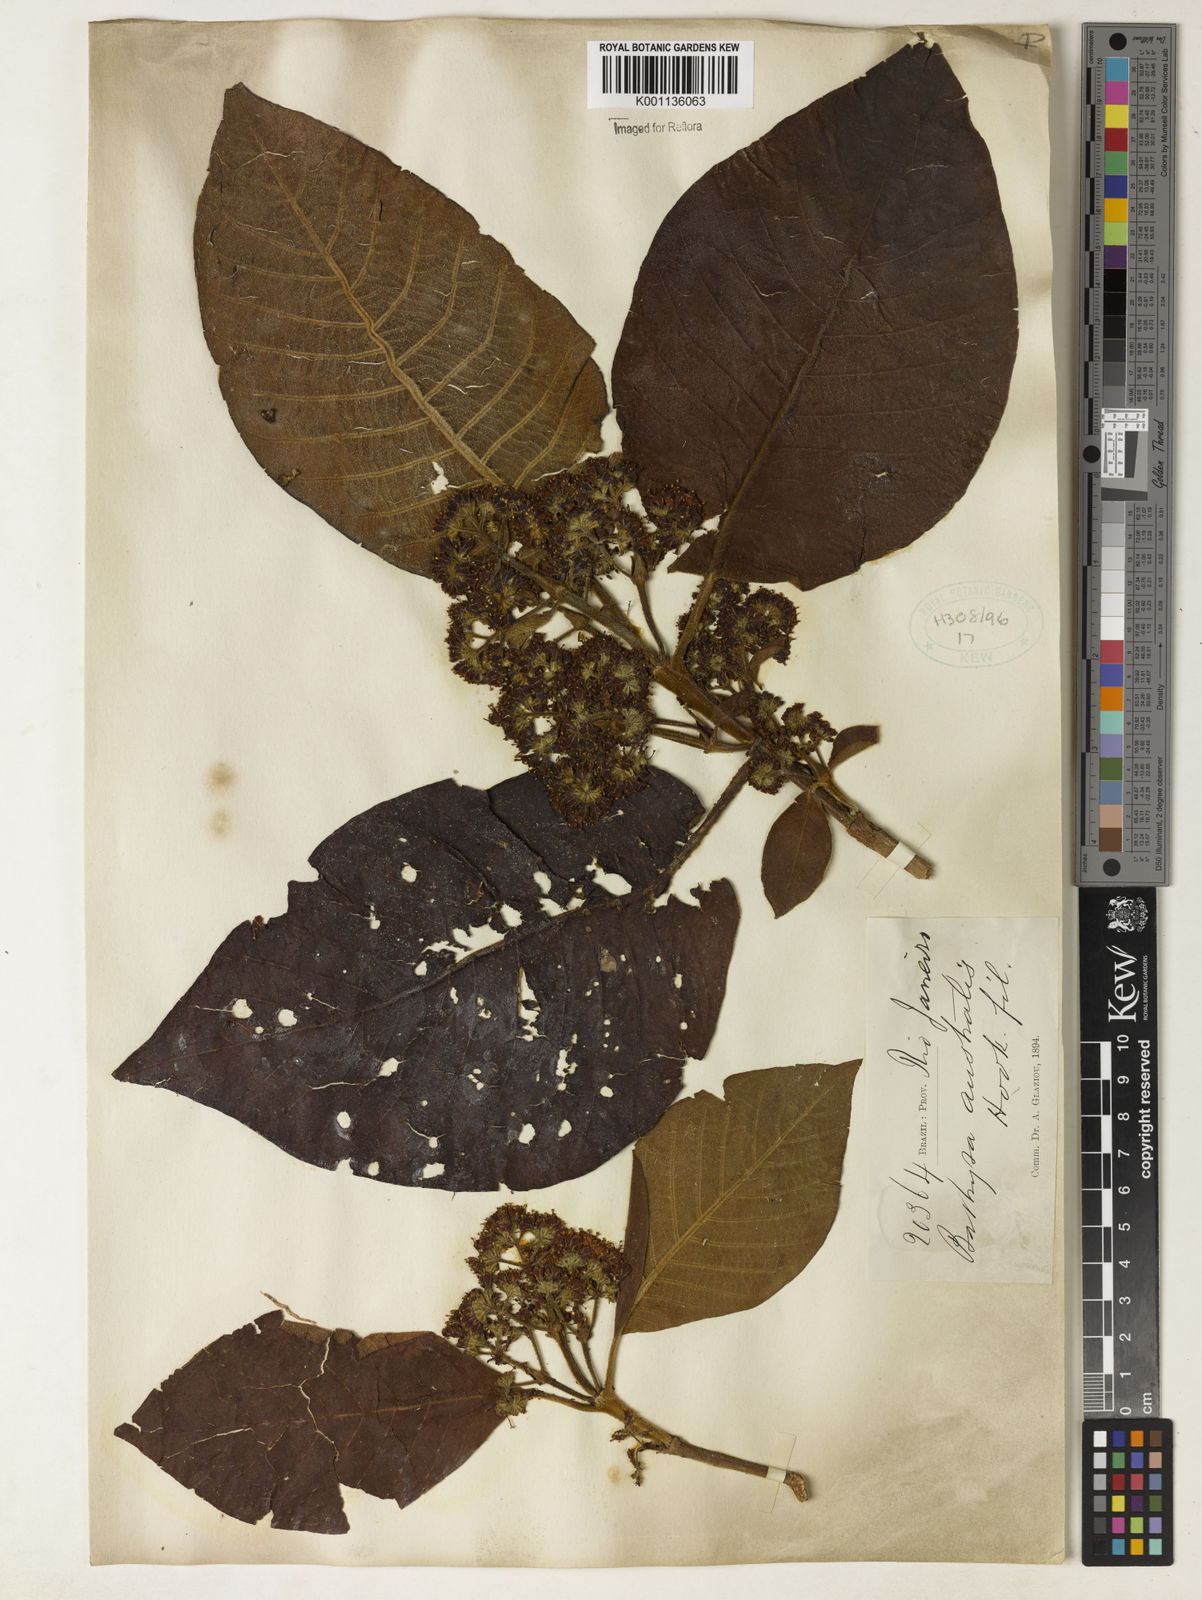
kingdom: Plantae
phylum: Tracheophyta
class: Magnoliopsida
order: Gentianales
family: Rubiaceae
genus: Bathysa
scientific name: Bathysa australis
